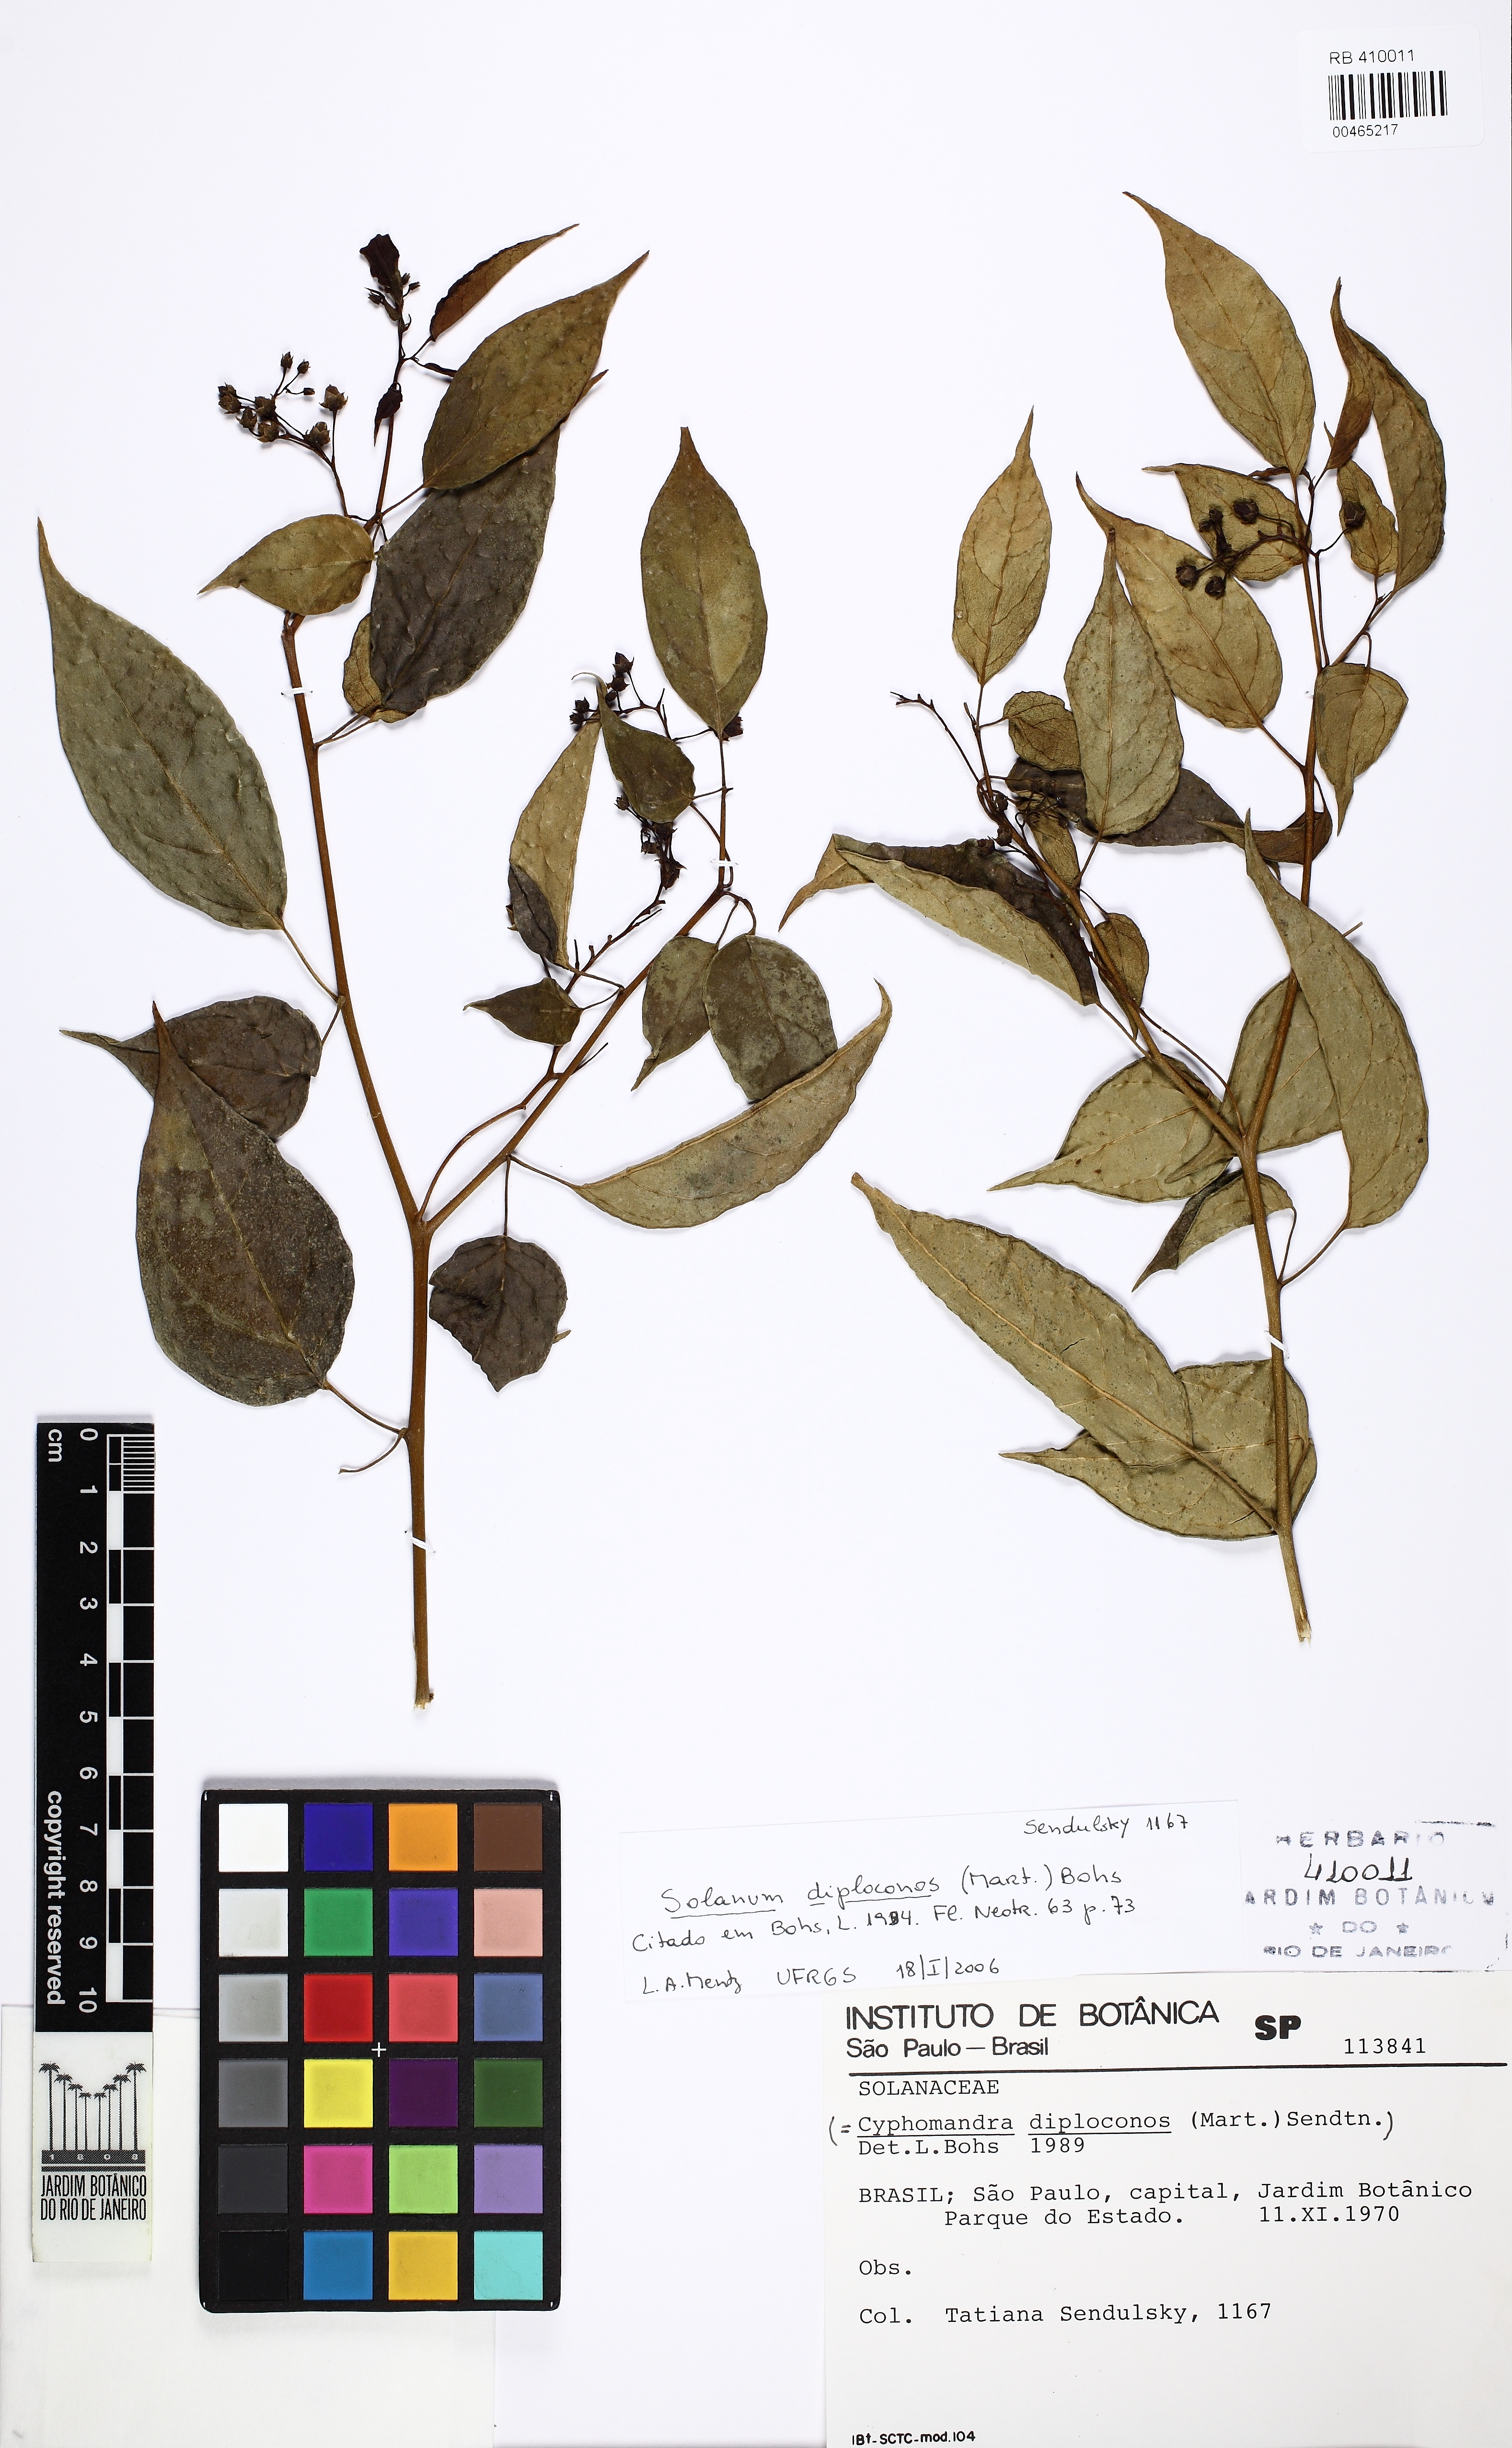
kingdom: Plantae
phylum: Tracheophyta
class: Magnoliopsida
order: Solanales
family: Solanaceae
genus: Solanum
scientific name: Solanum diploconos
